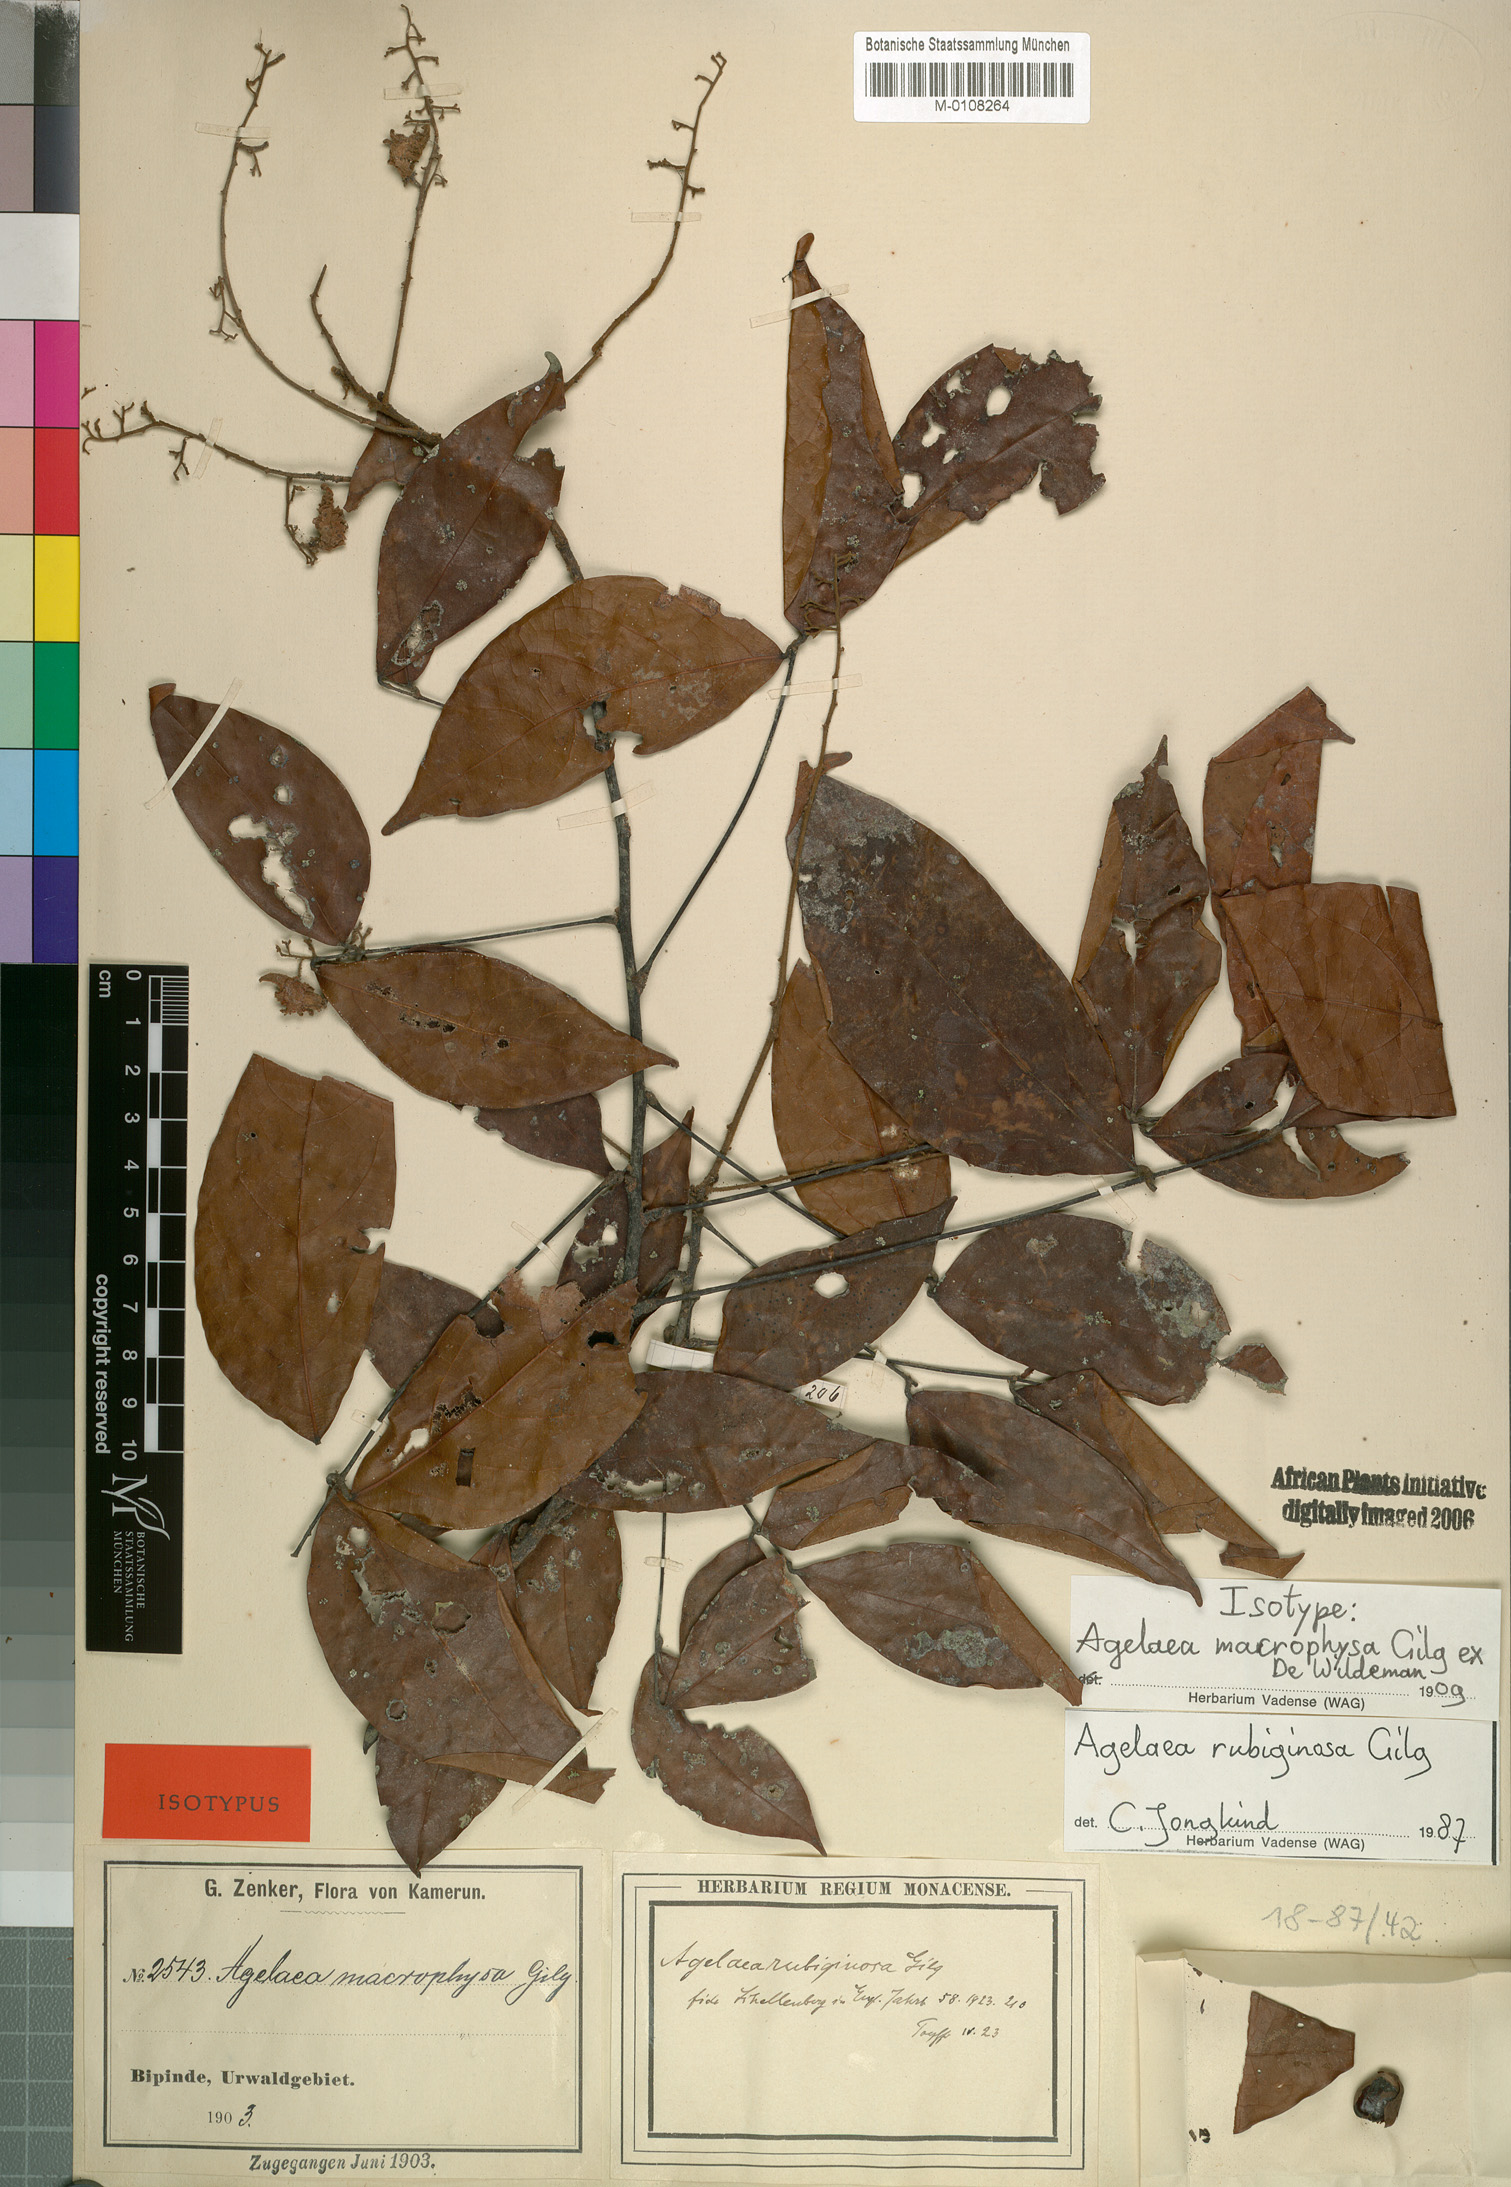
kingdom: Plantae
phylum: Tracheophyta
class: Magnoliopsida
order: Oxalidales
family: Connaraceae
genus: Agelaea
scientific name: Agelaea rubiginosa
